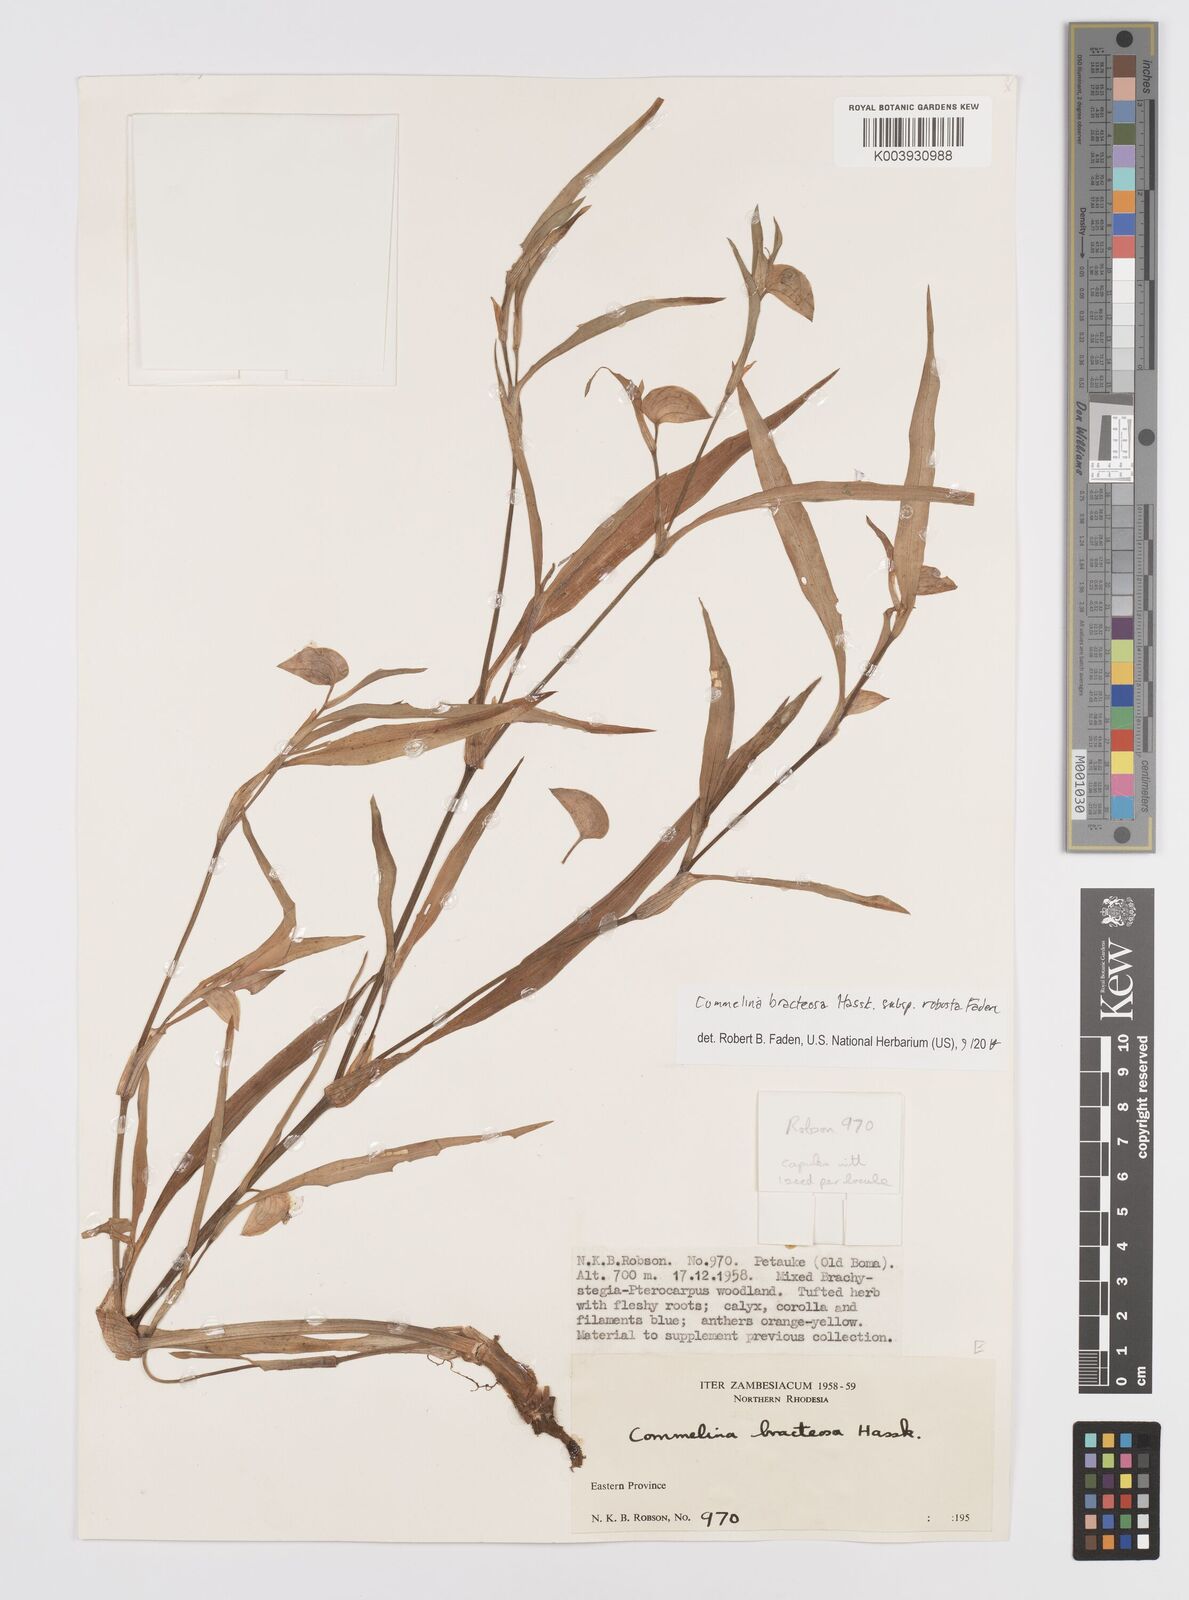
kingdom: Plantae
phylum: Tracheophyta
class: Liliopsida
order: Commelinales
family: Commelinaceae
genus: Commelina
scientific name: Commelina bracteosa
